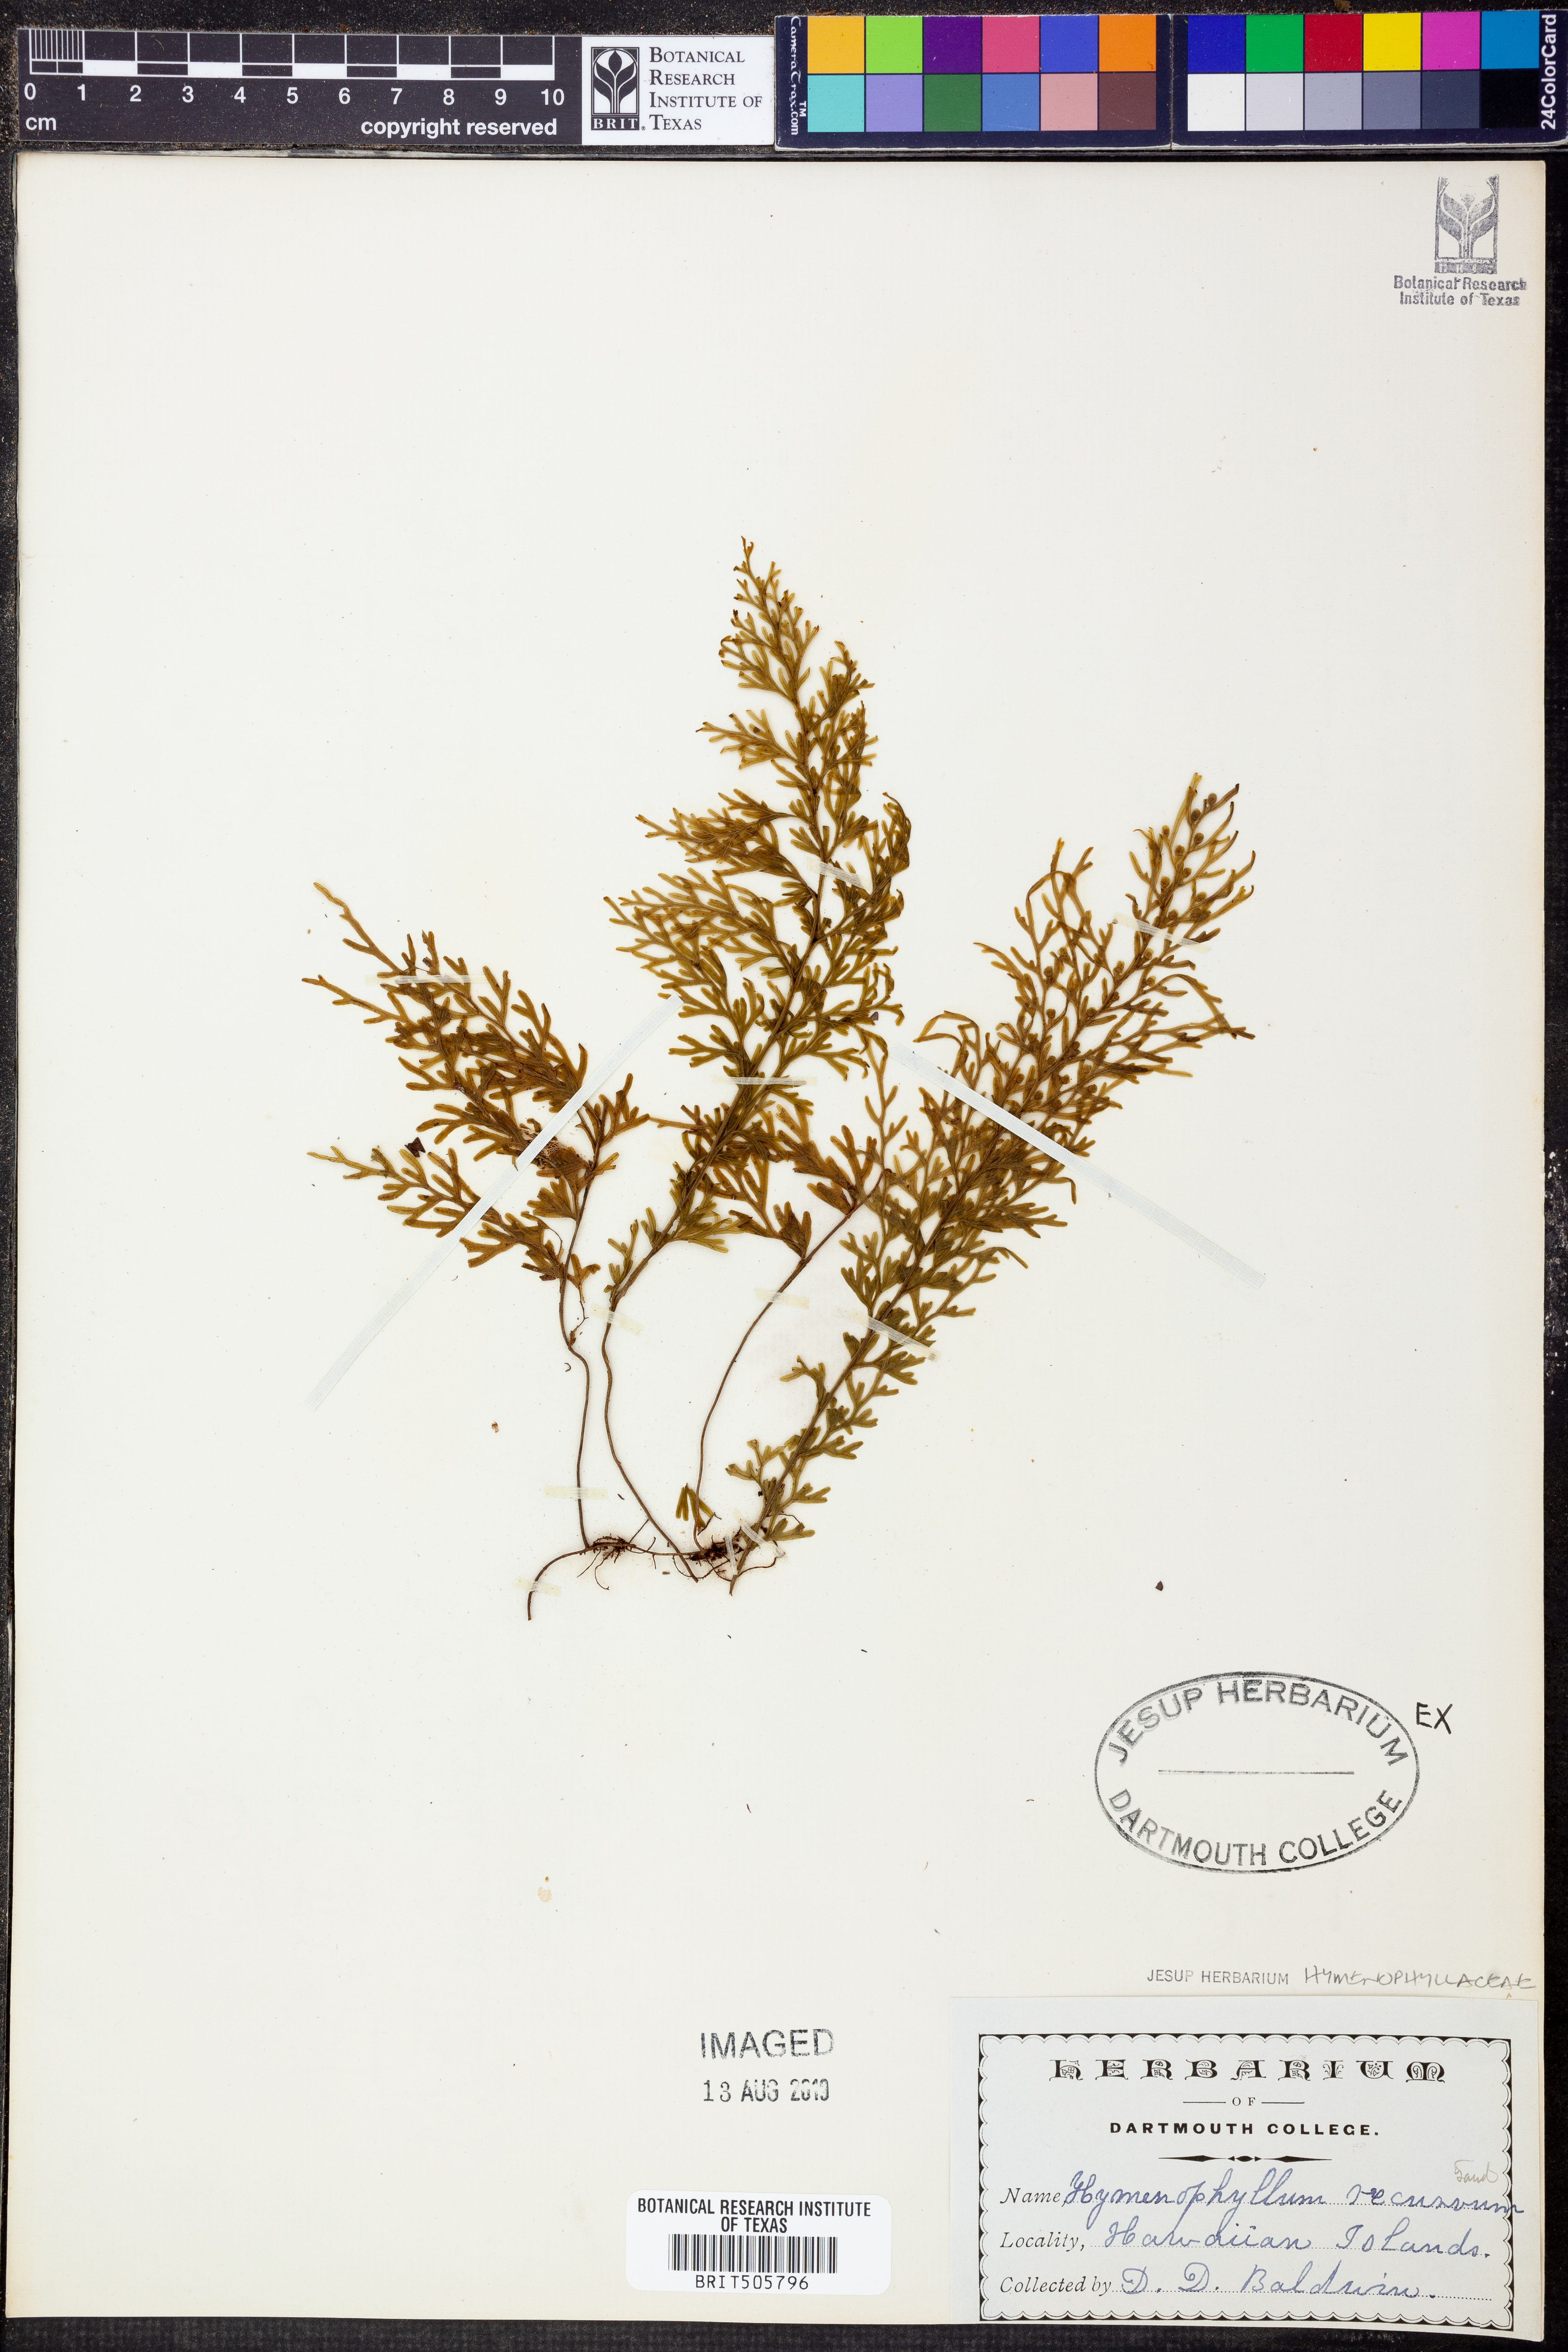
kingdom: Plantae
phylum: Tracheophyta
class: Polypodiopsida
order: Hymenophyllales
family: Hymenophyllaceae
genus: Hymenophyllum
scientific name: Hymenophyllum recurvum
